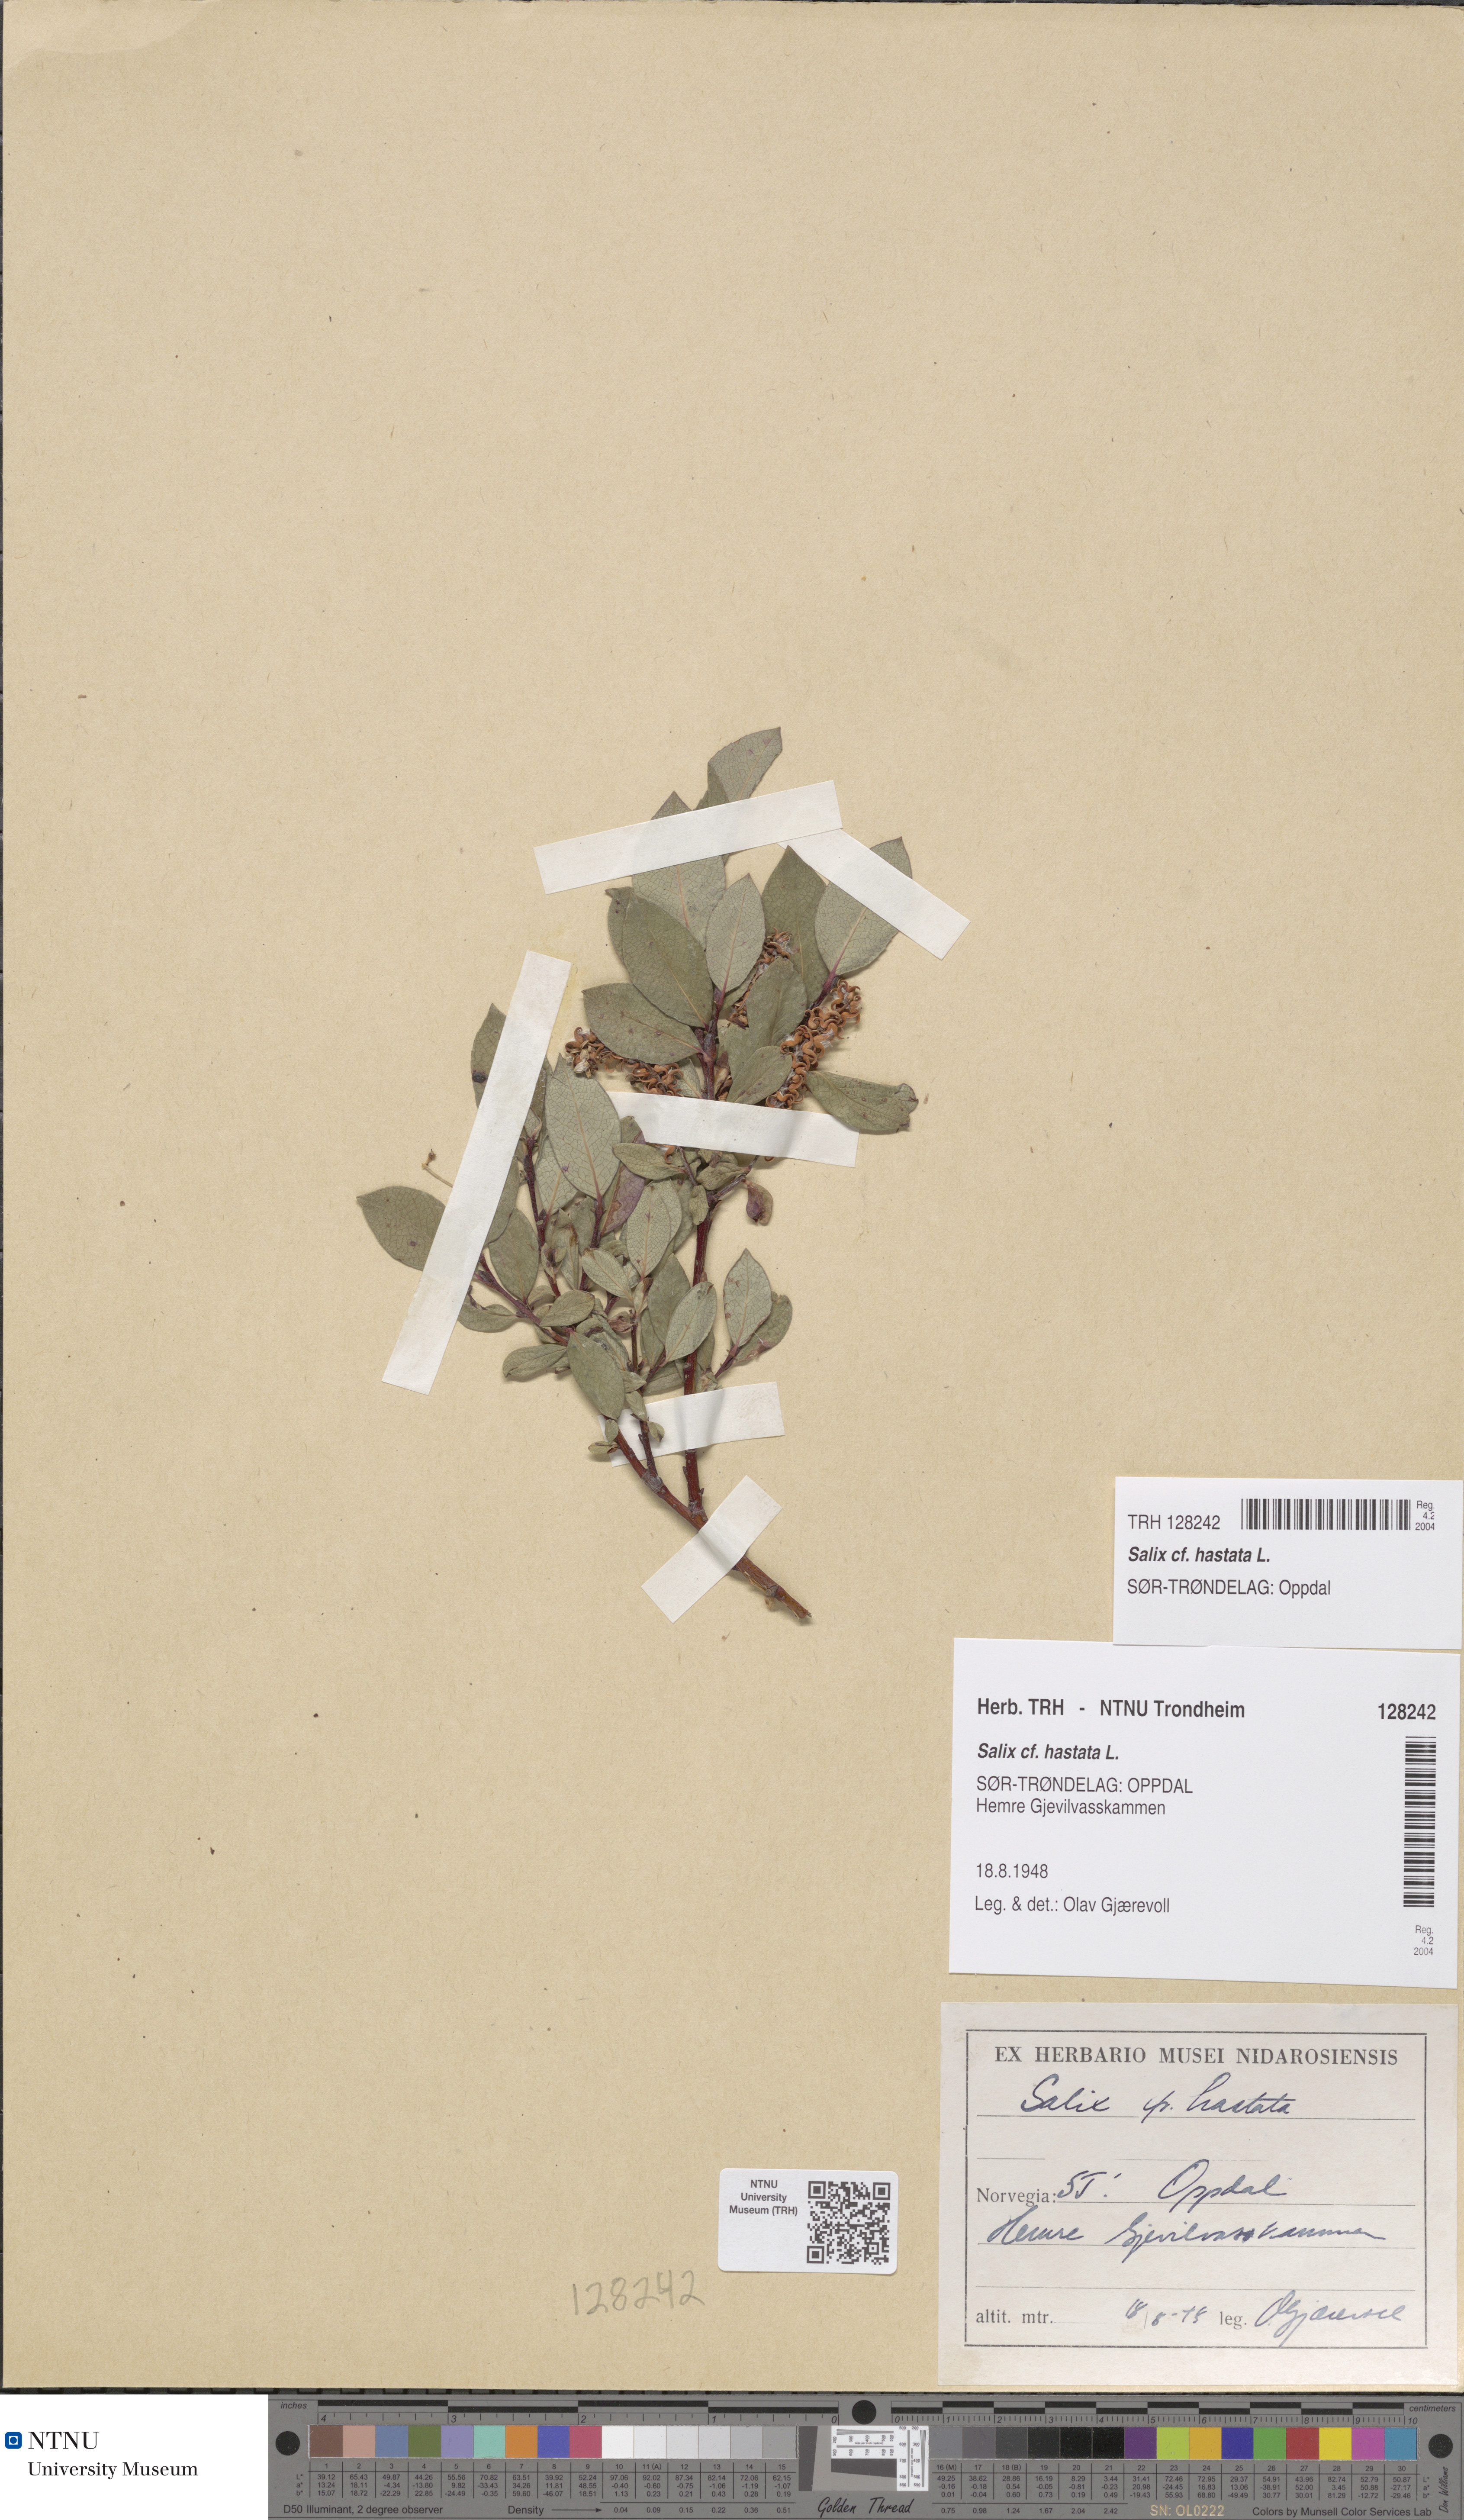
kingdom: Plantae
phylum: Tracheophyta
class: Magnoliopsida
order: Malpighiales
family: Salicaceae
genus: Salix
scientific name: Salix hastata
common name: Halberd willow
